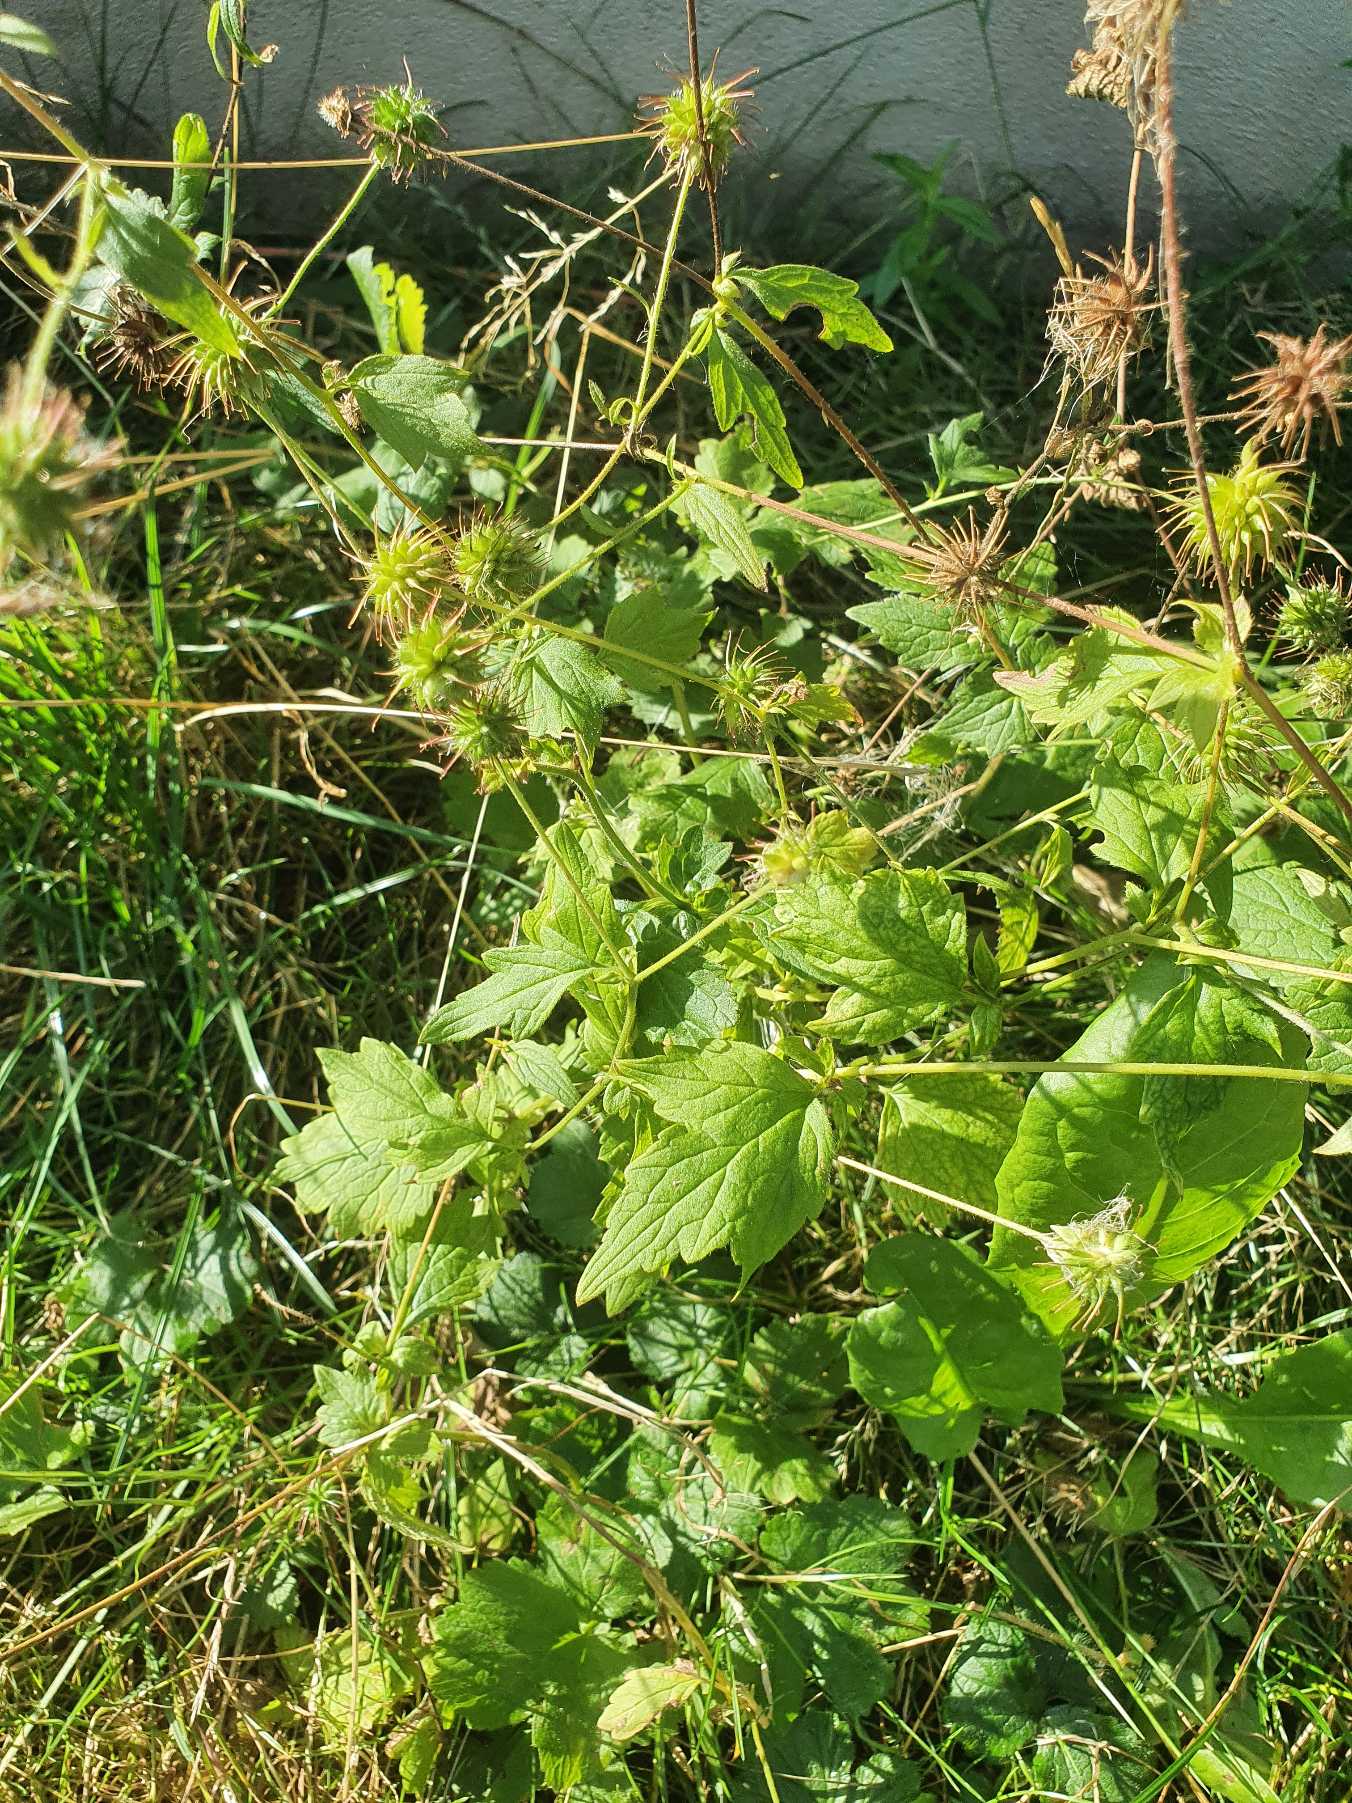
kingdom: Plantae
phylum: Tracheophyta
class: Magnoliopsida
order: Rosales
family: Rosaceae
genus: Geum
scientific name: Geum urbanum
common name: Feber-nellikerod
